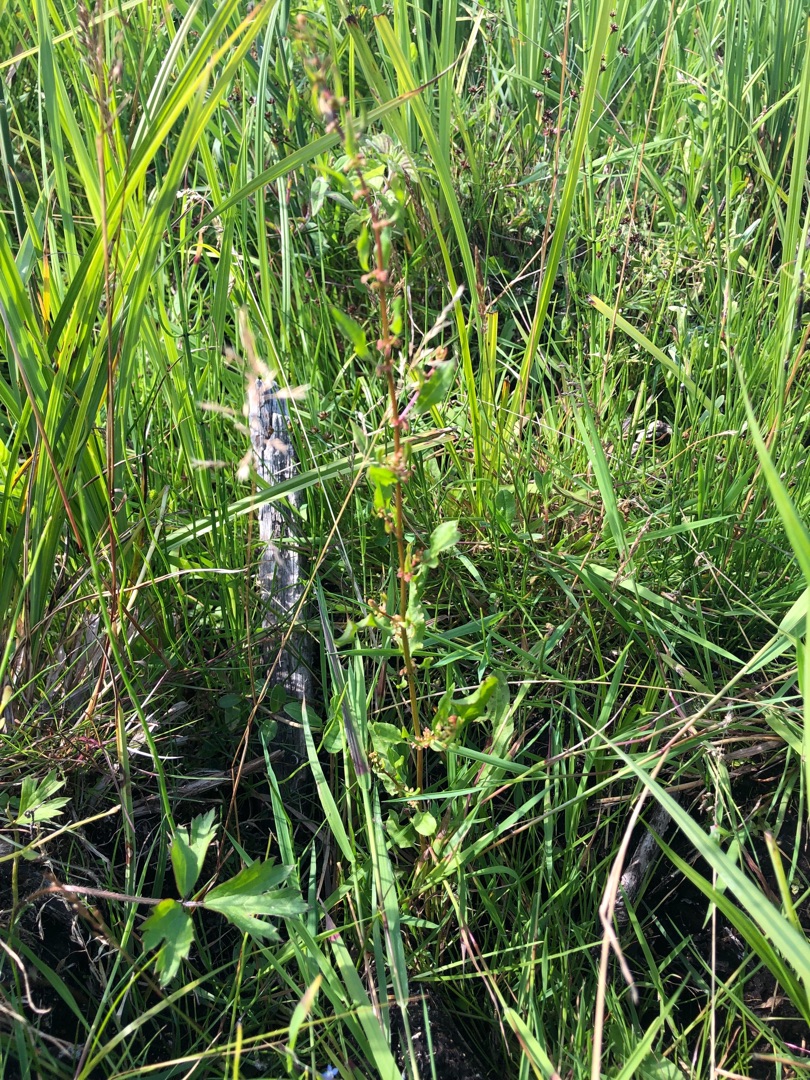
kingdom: Plantae
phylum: Tracheophyta
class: Magnoliopsida
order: Caryophyllales
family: Polygonaceae
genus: Rumex
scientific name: Rumex conglomeratus
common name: Nøgle-skræppe
